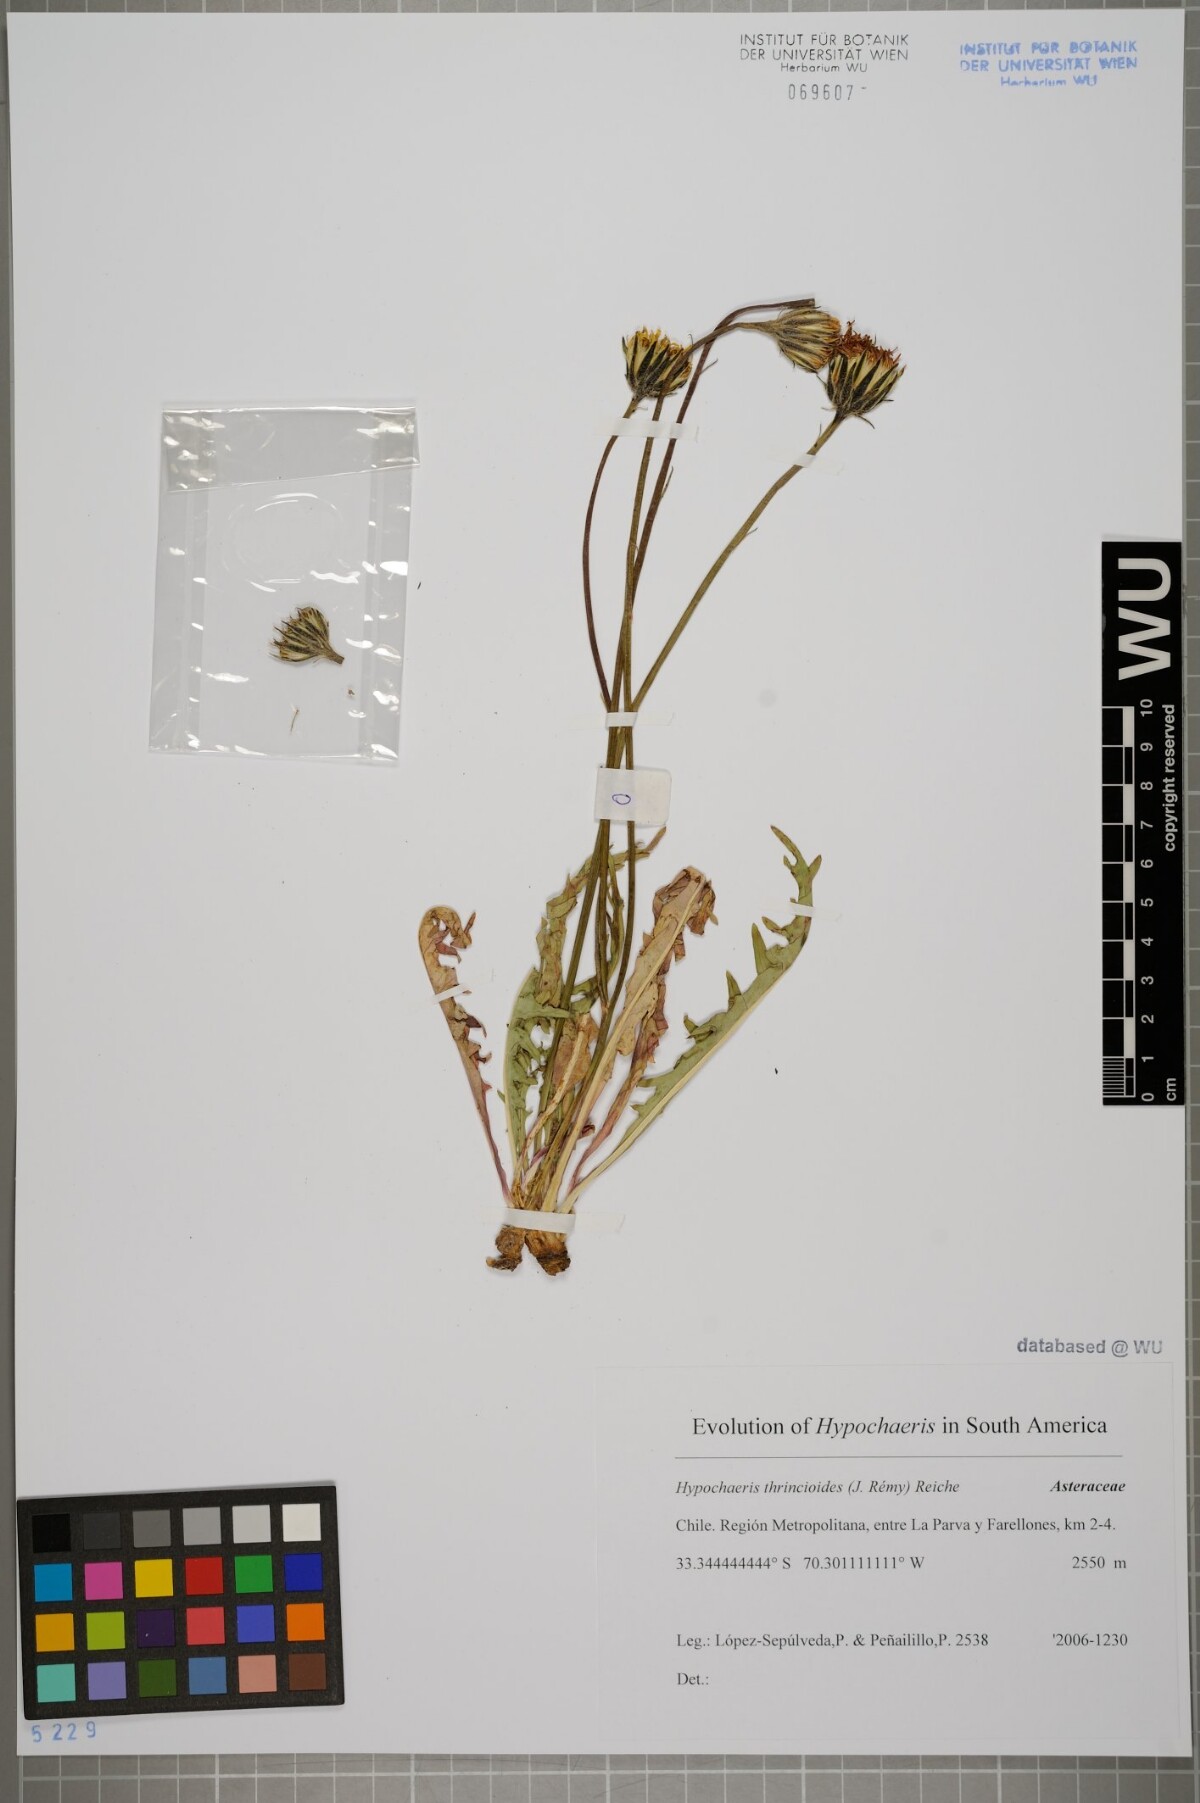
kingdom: Plantae
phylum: Tracheophyta
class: Magnoliopsida
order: Asterales
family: Asteraceae
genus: Hypochaeris
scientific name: Hypochaeris apargioides
